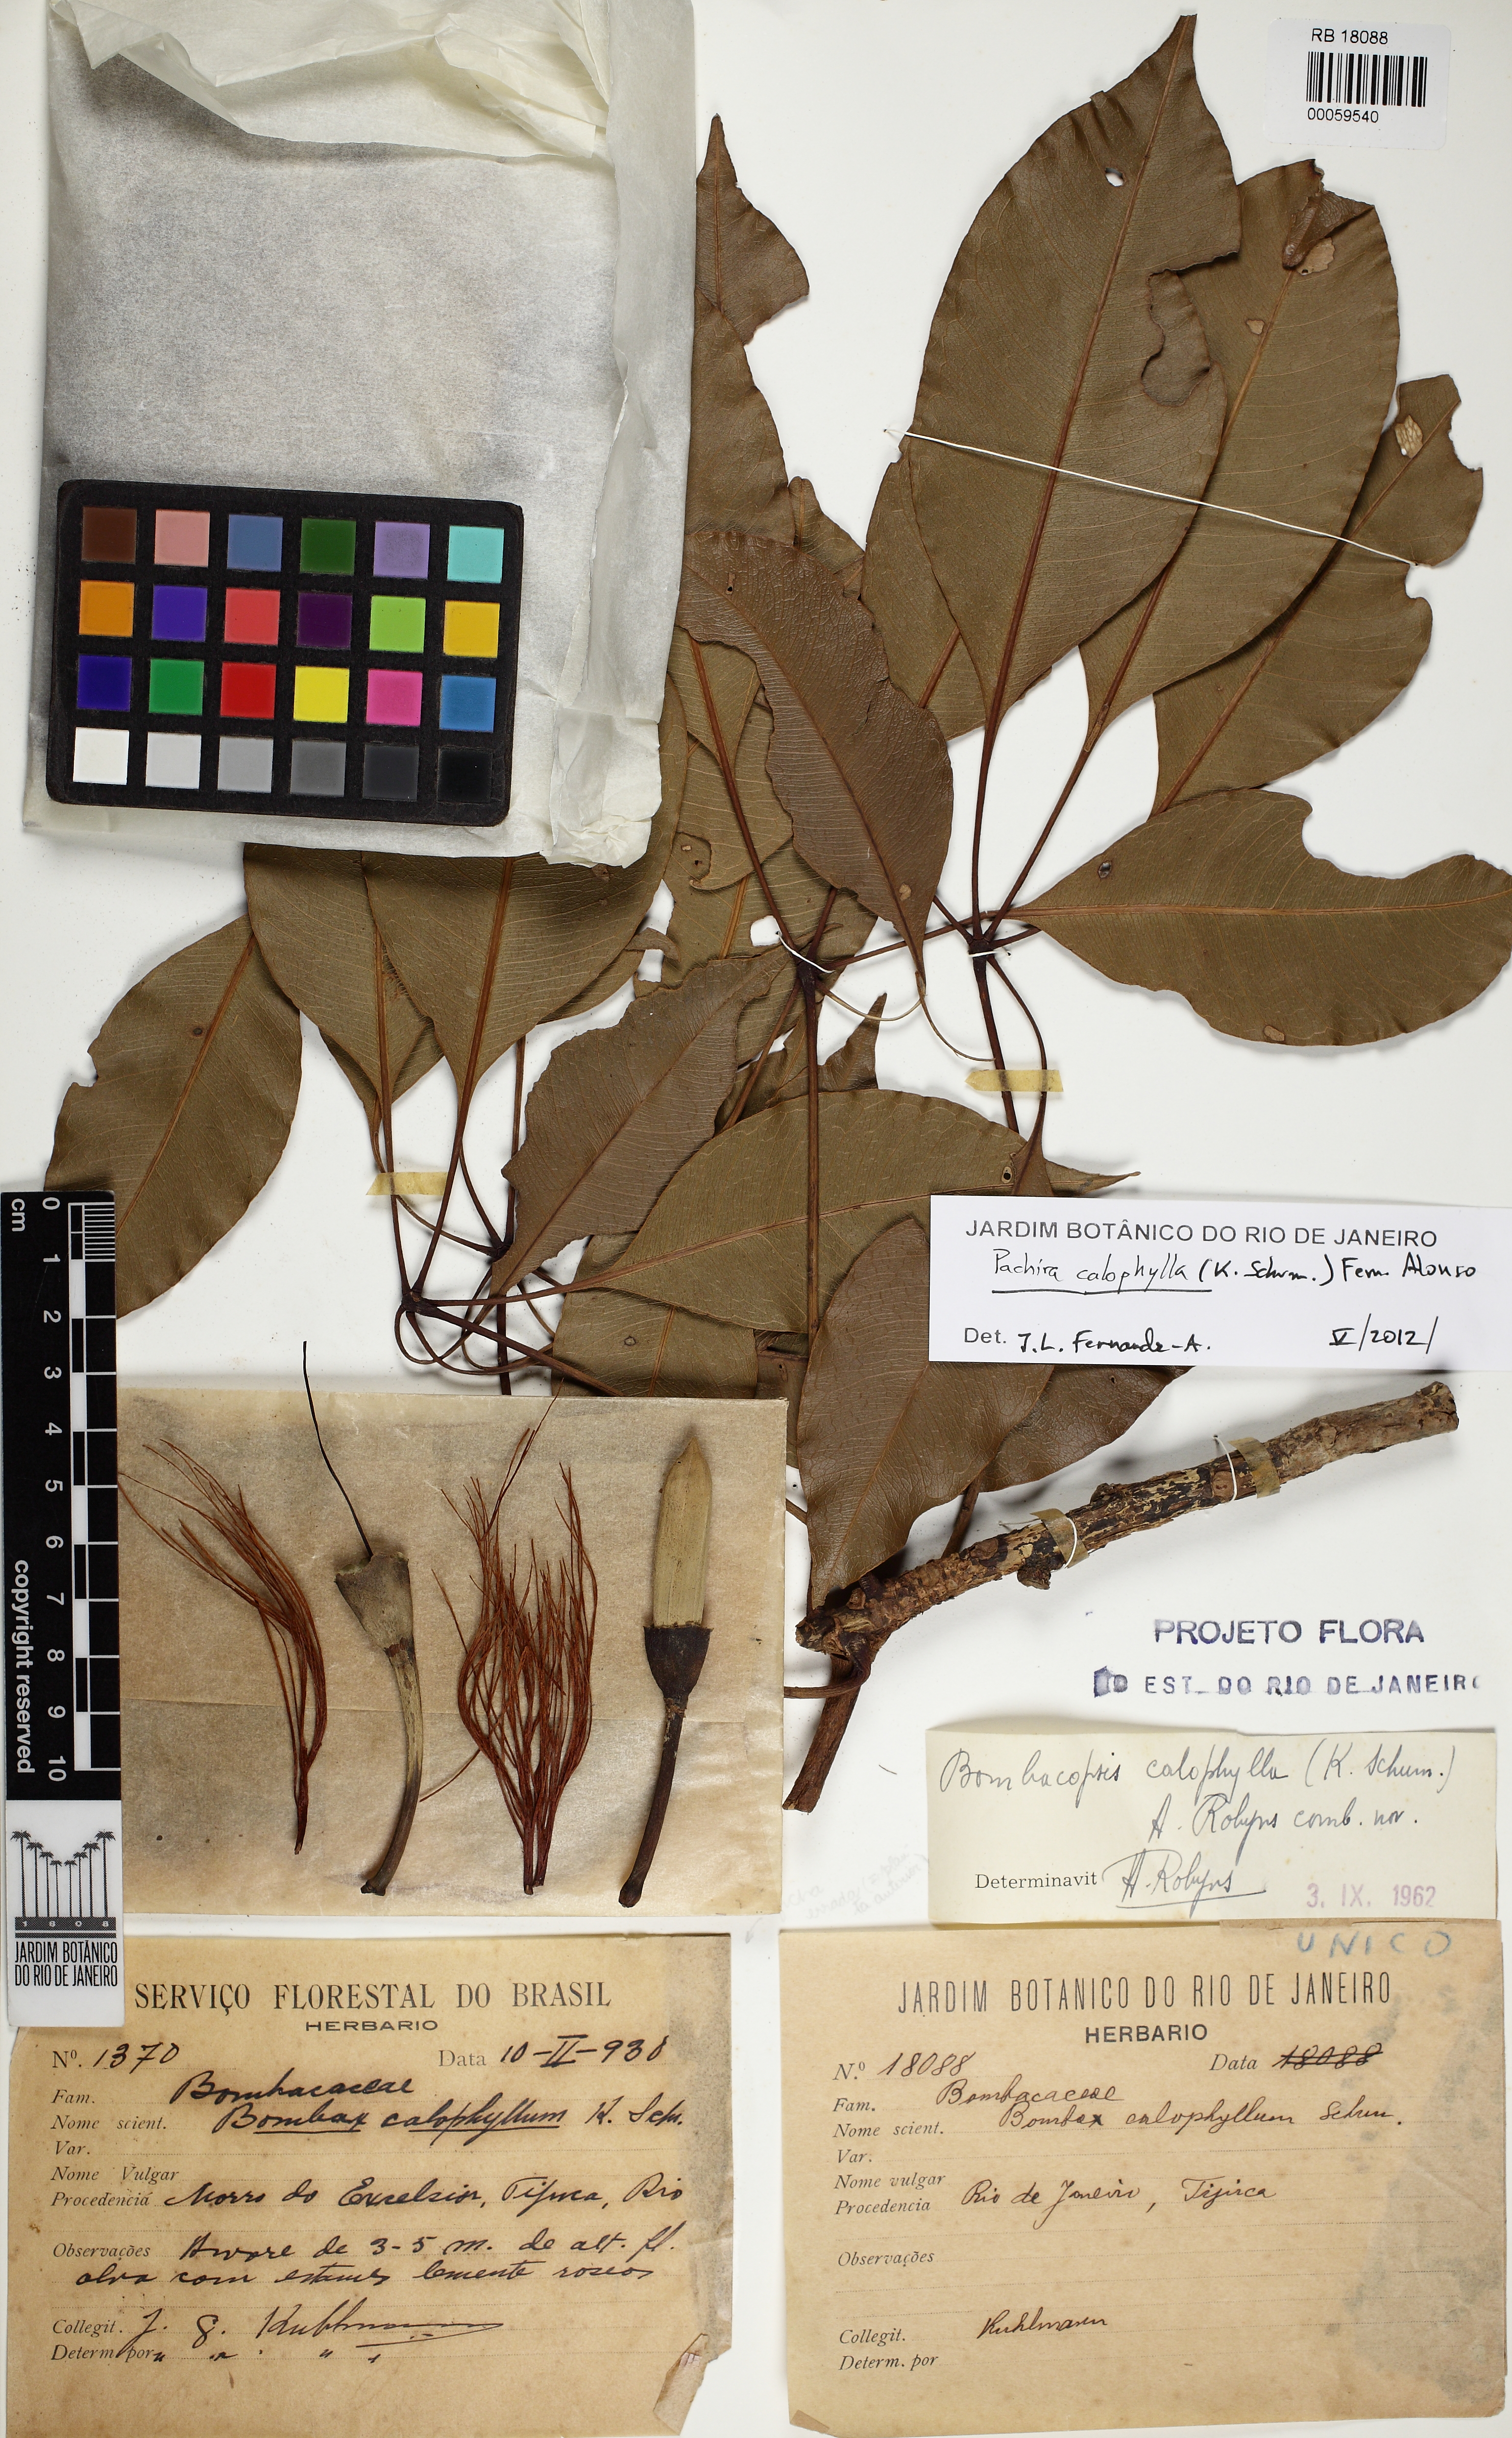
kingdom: Plantae
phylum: Tracheophyta
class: Magnoliopsida
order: Malvales
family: Malvaceae
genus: Pachira
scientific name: Pachira calophylla
